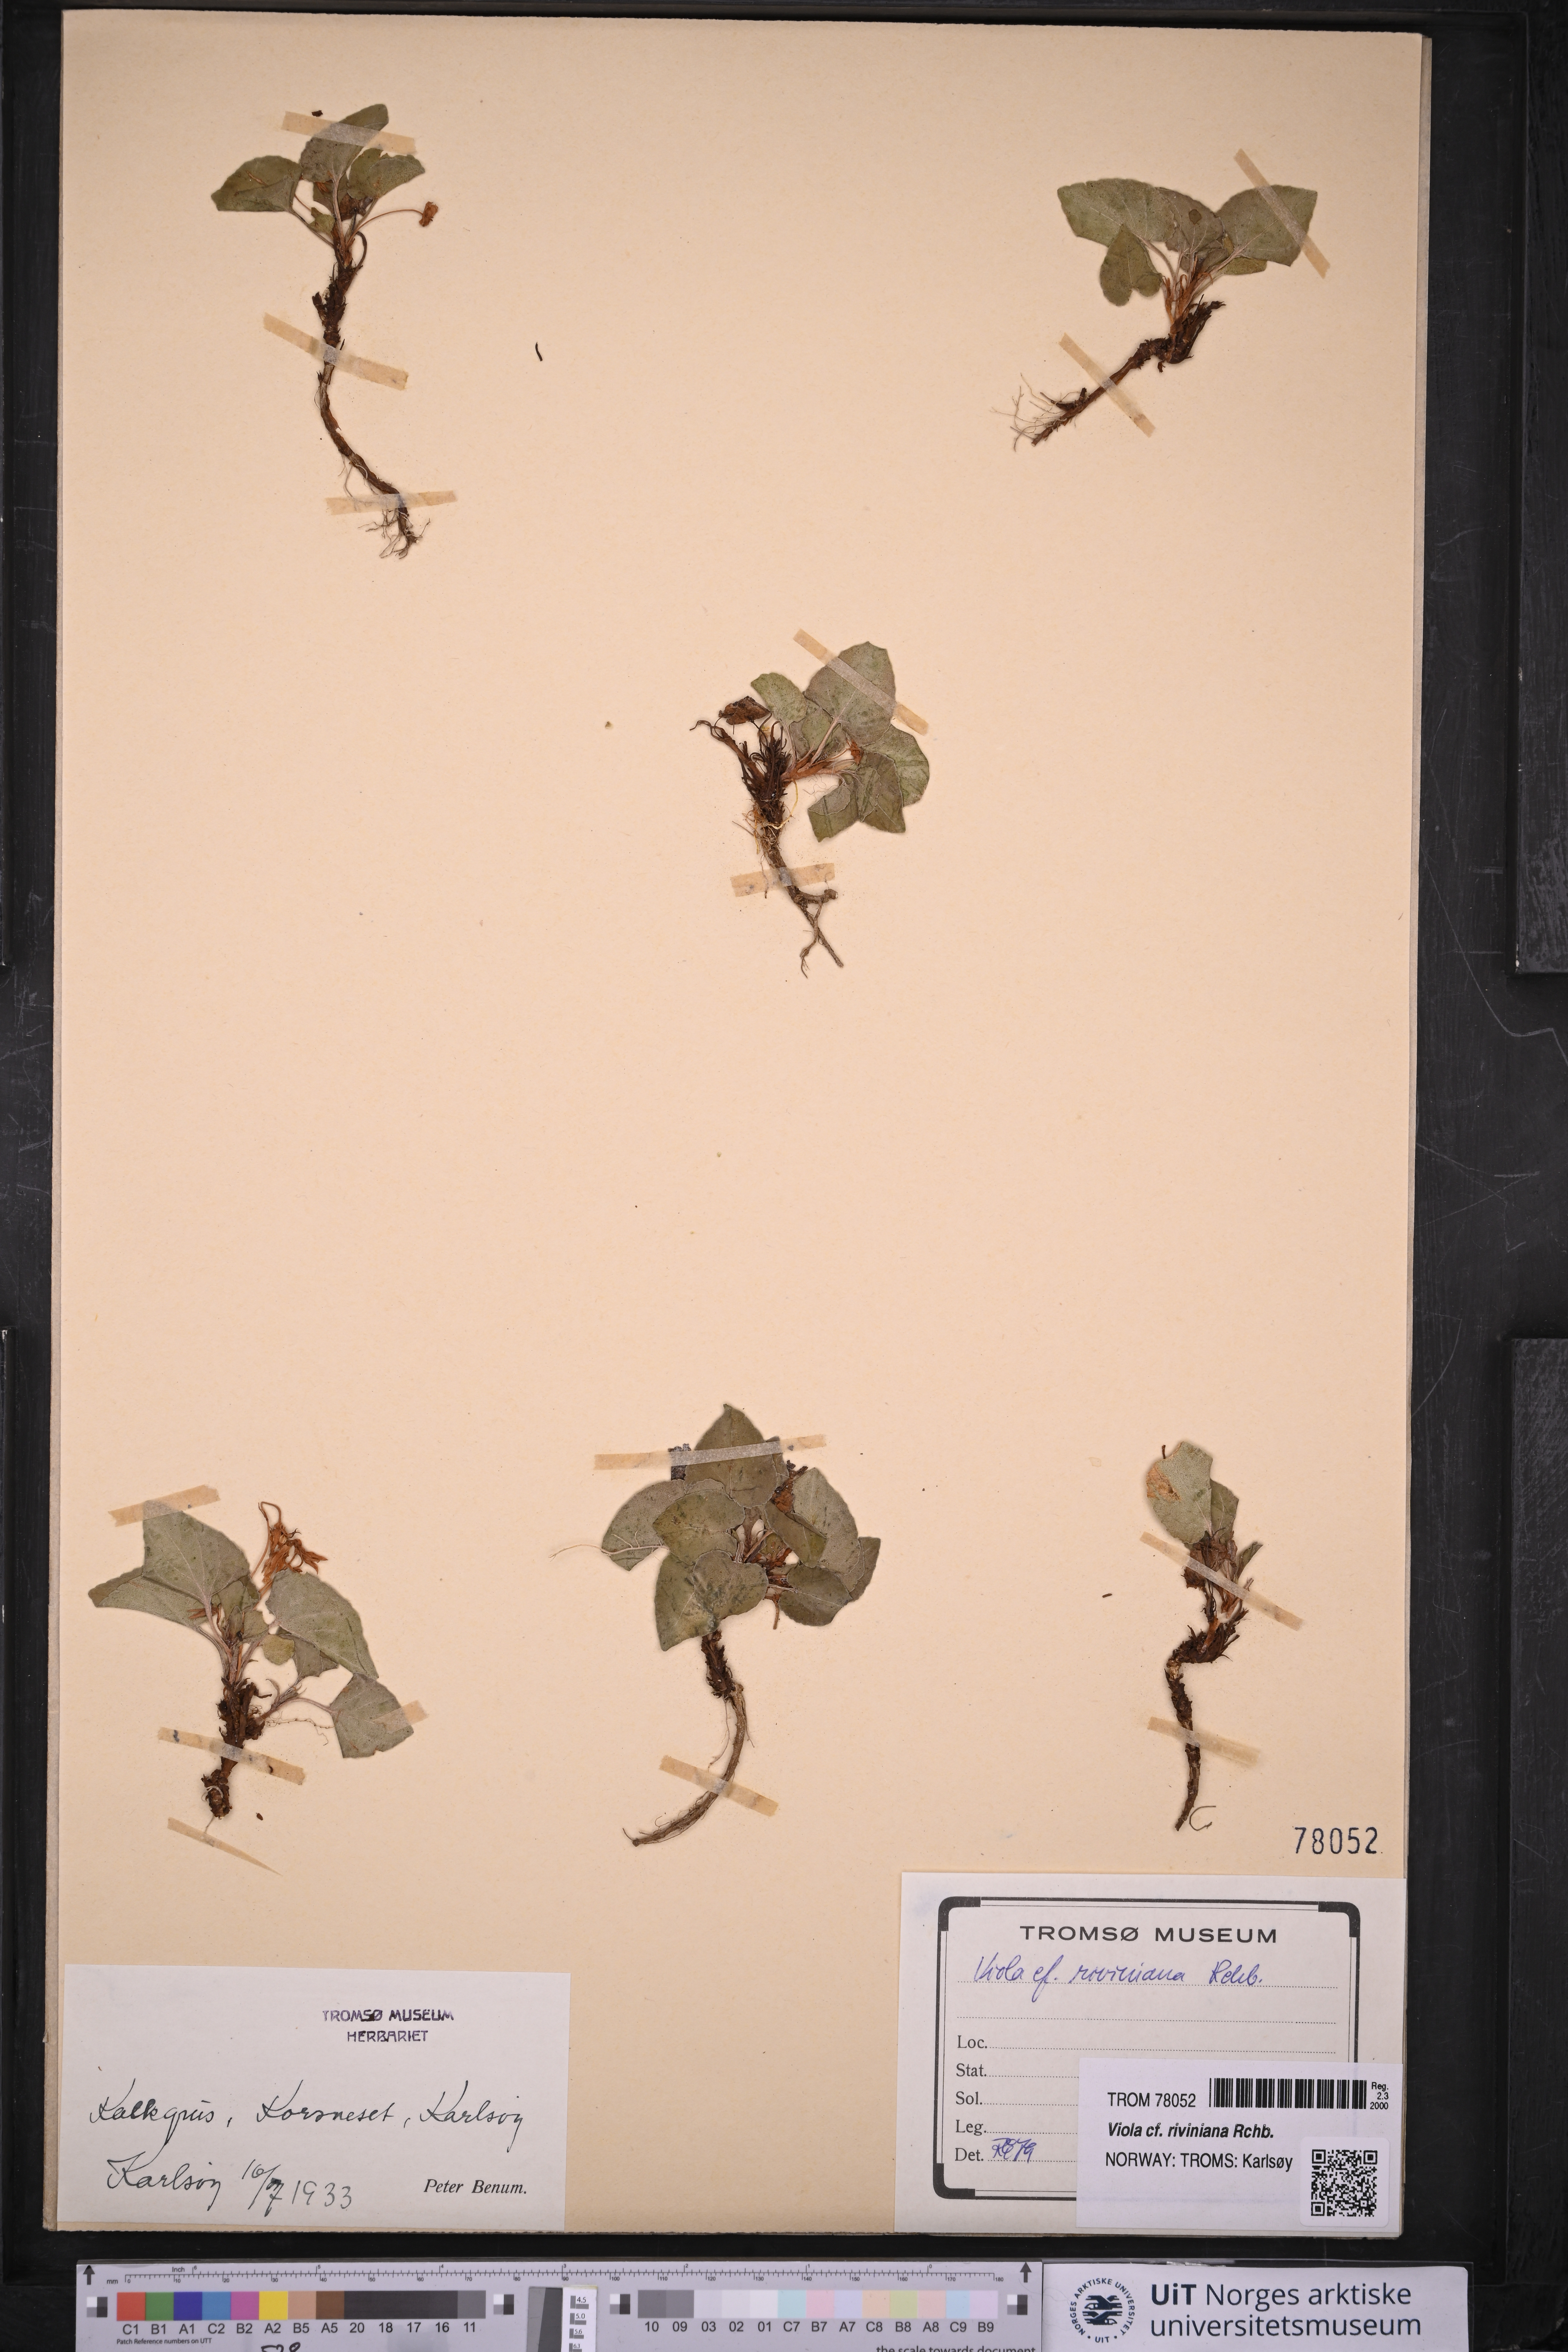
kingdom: Plantae
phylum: Tracheophyta
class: Magnoliopsida
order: Malpighiales
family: Violaceae
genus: Viola
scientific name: Viola riviniana
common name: Common dog-violet
